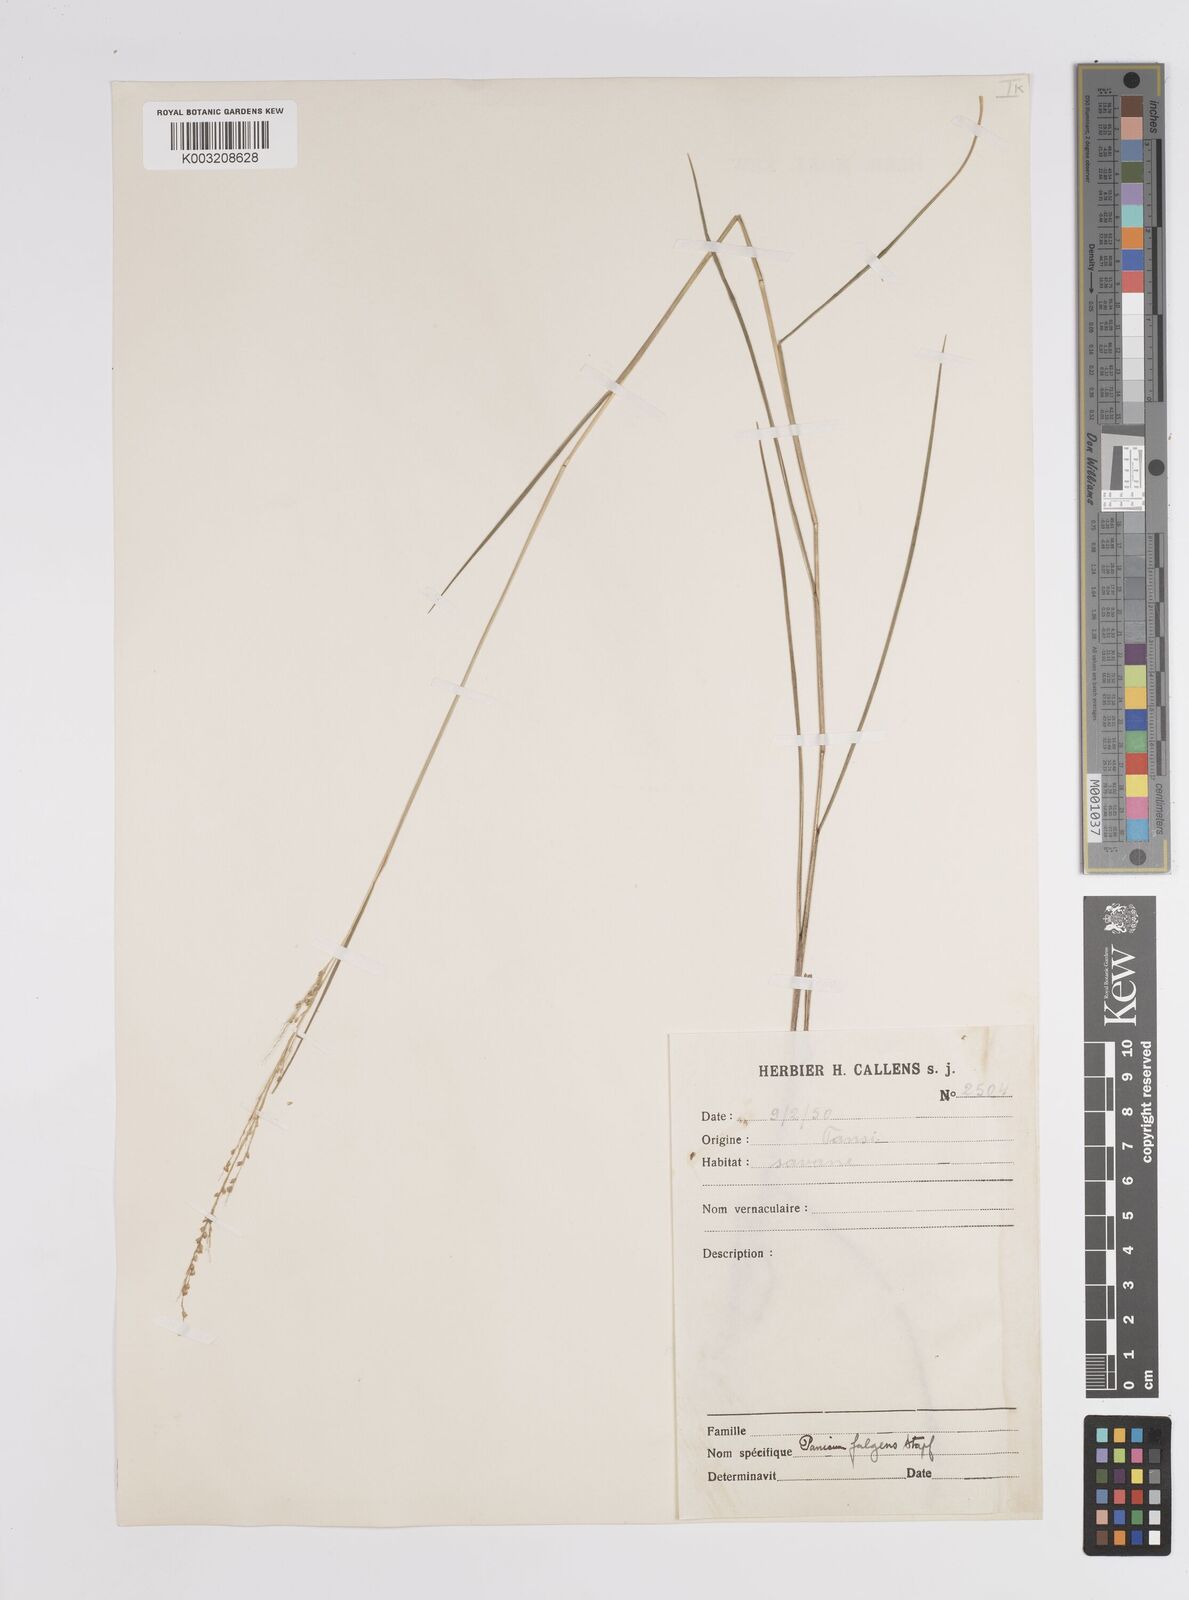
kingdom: Plantae
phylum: Tracheophyta
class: Liliopsida
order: Poales
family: Poaceae
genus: Trichanthecium
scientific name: Trichanthecium nervatum
